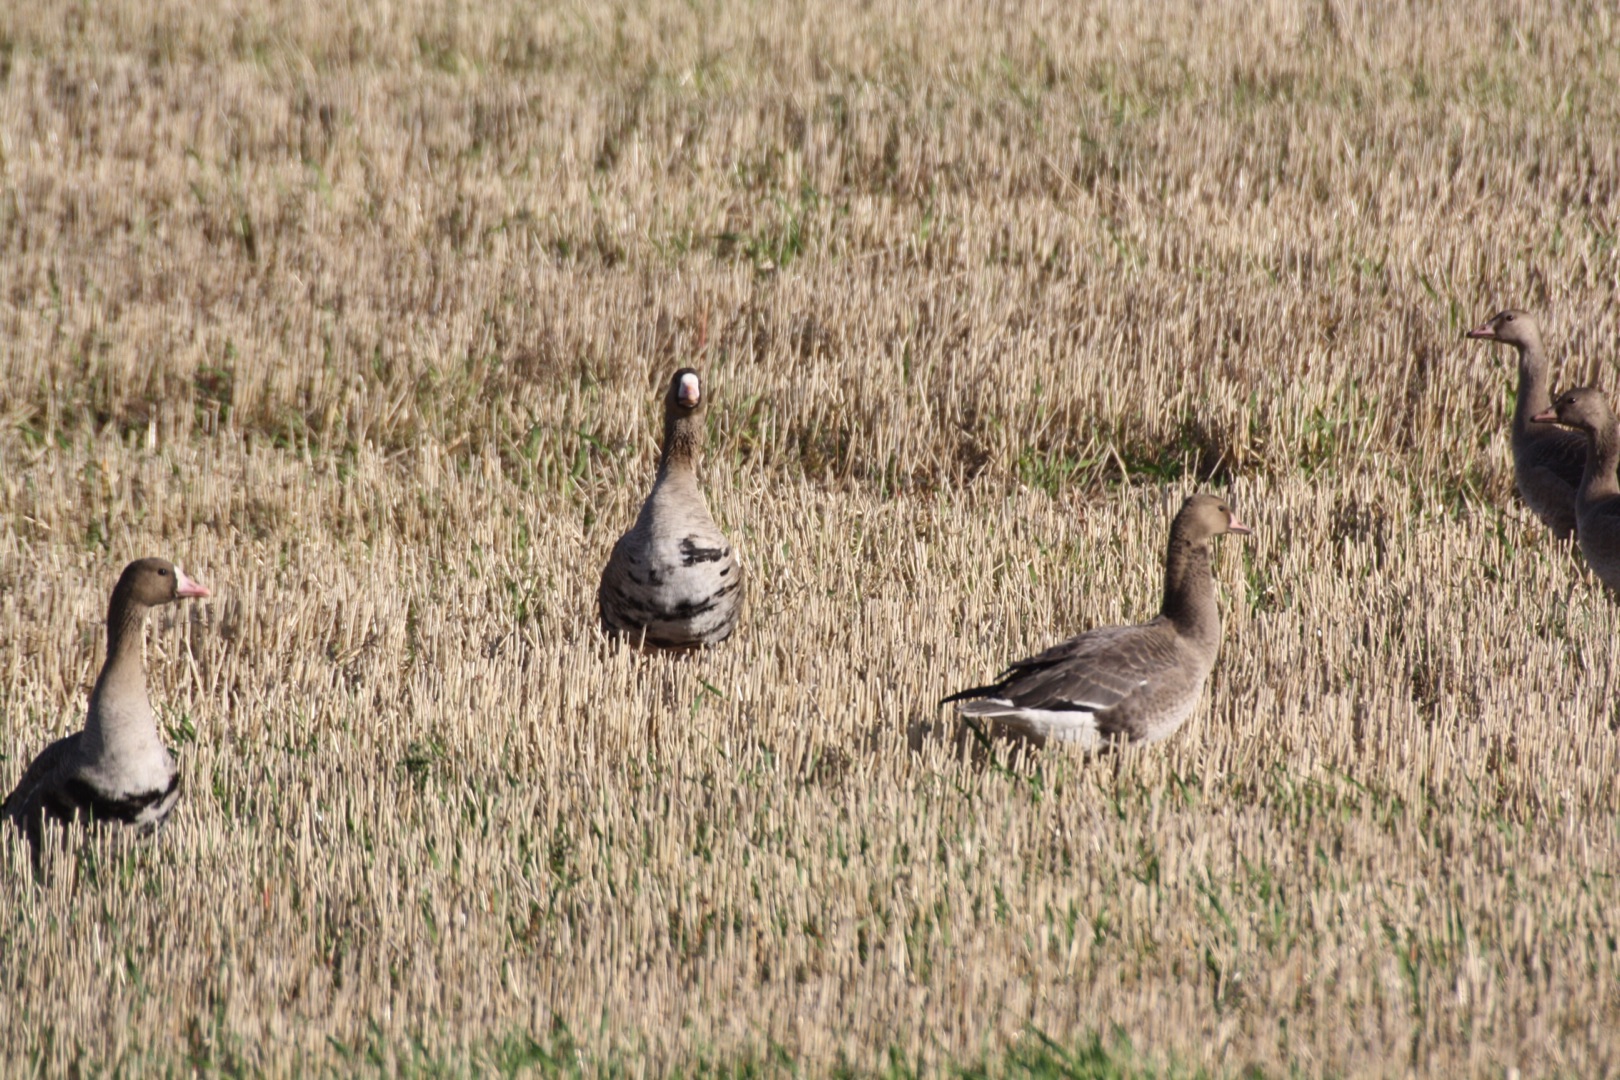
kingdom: Animalia
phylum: Chordata
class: Aves
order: Anseriformes
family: Anatidae
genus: Anser
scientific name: Anser albifrons
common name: Blisgås
